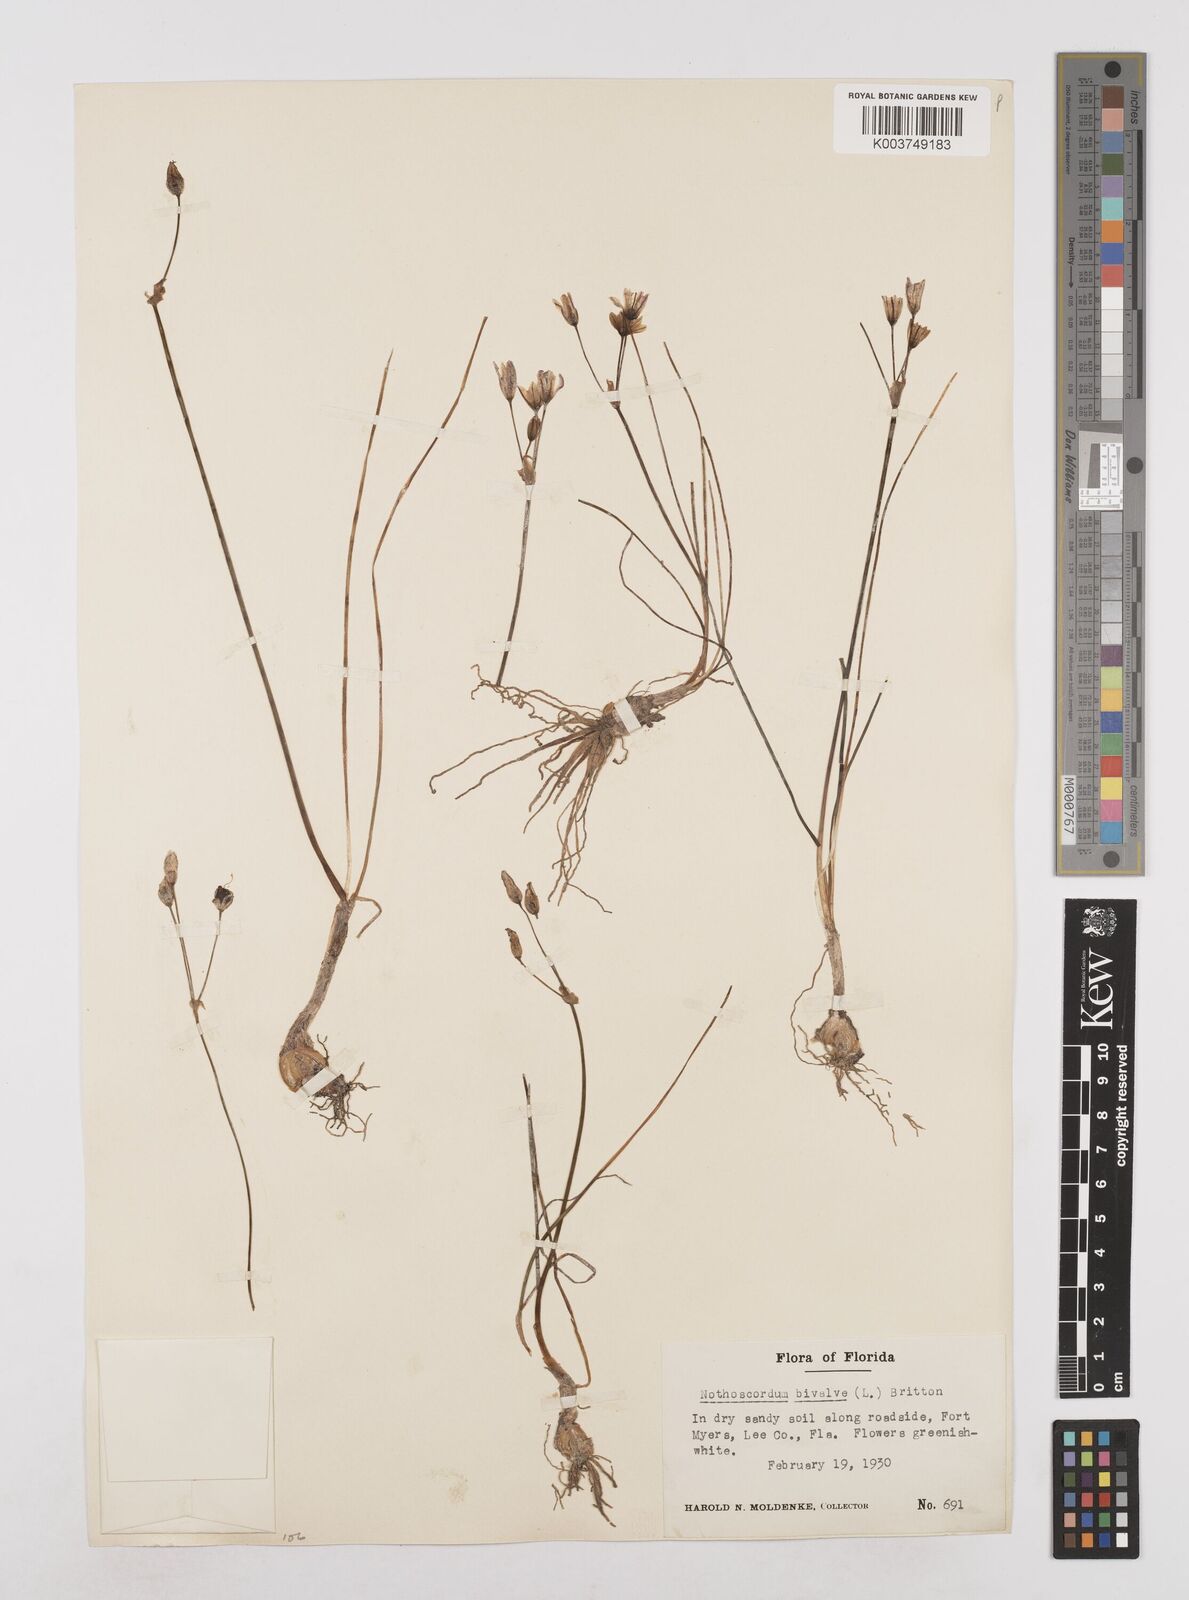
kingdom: Plantae
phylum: Tracheophyta
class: Liliopsida
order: Asparagales
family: Amaryllidaceae
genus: Nothoscordum
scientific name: Nothoscordum bivalve
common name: Crow-poison
